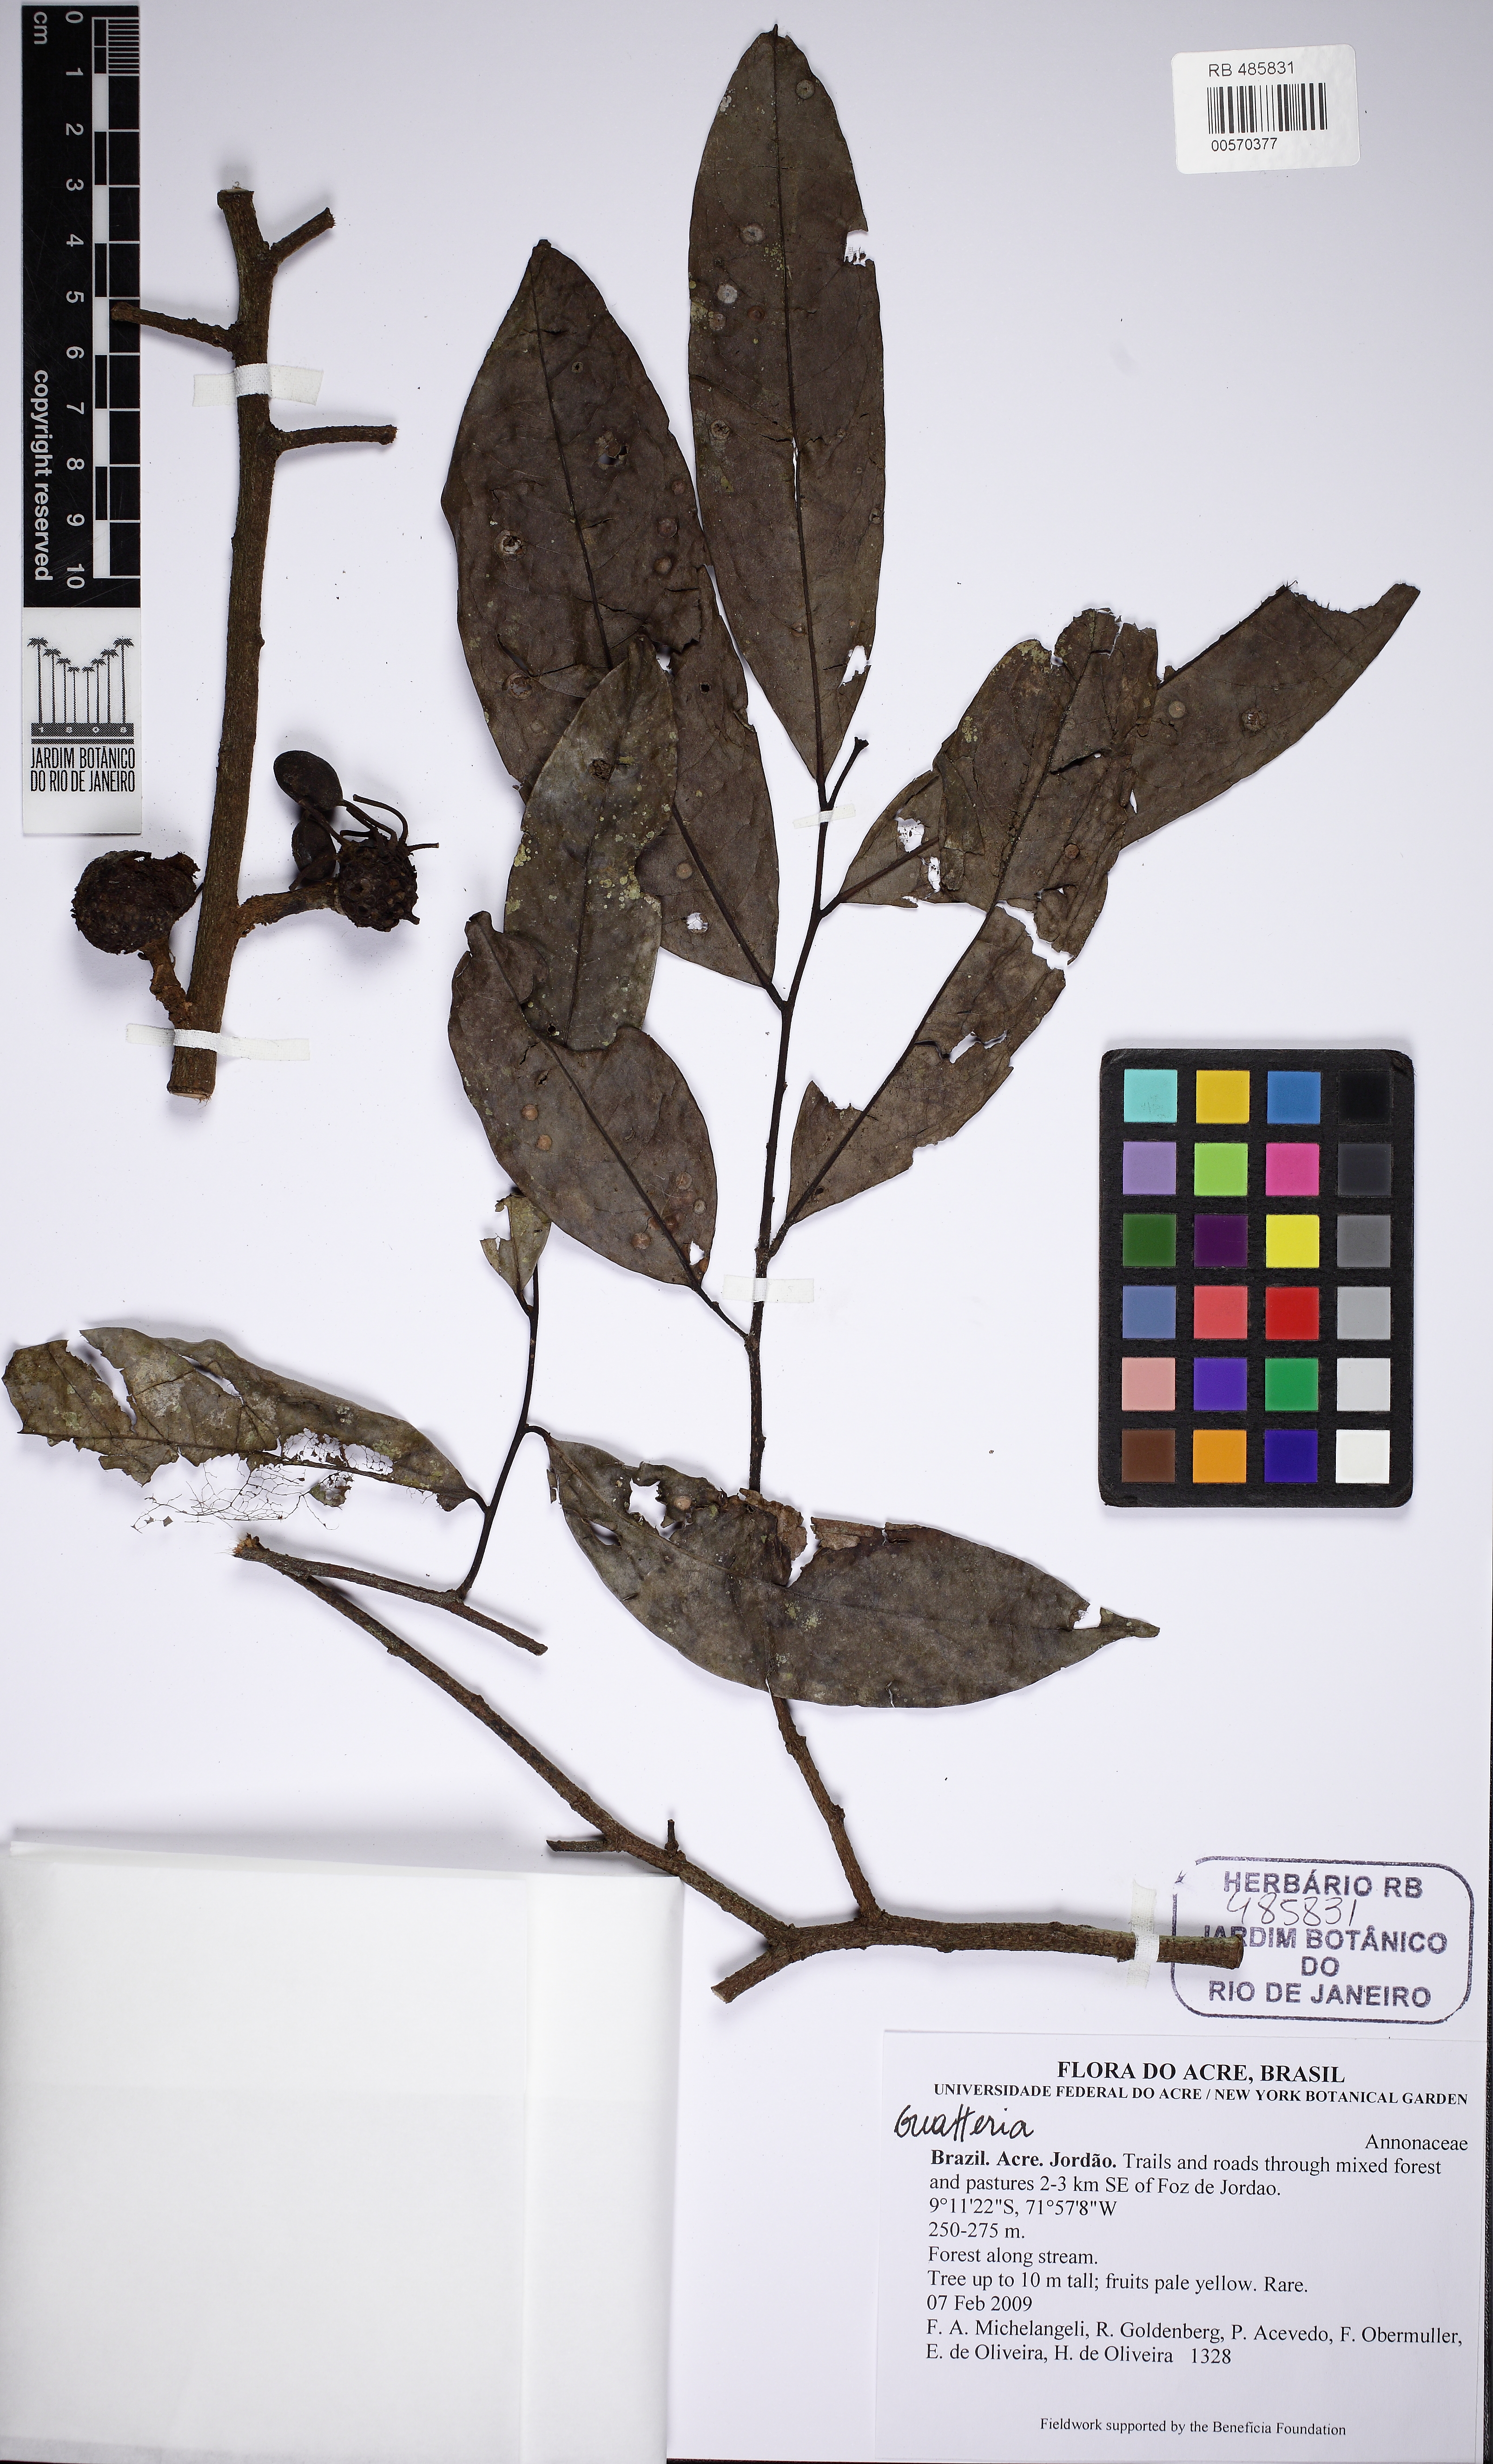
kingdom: Plantae
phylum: Tracheophyta
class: Magnoliopsida
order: Magnoliales
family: Annonaceae
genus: Guatteria
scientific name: Guatteria
